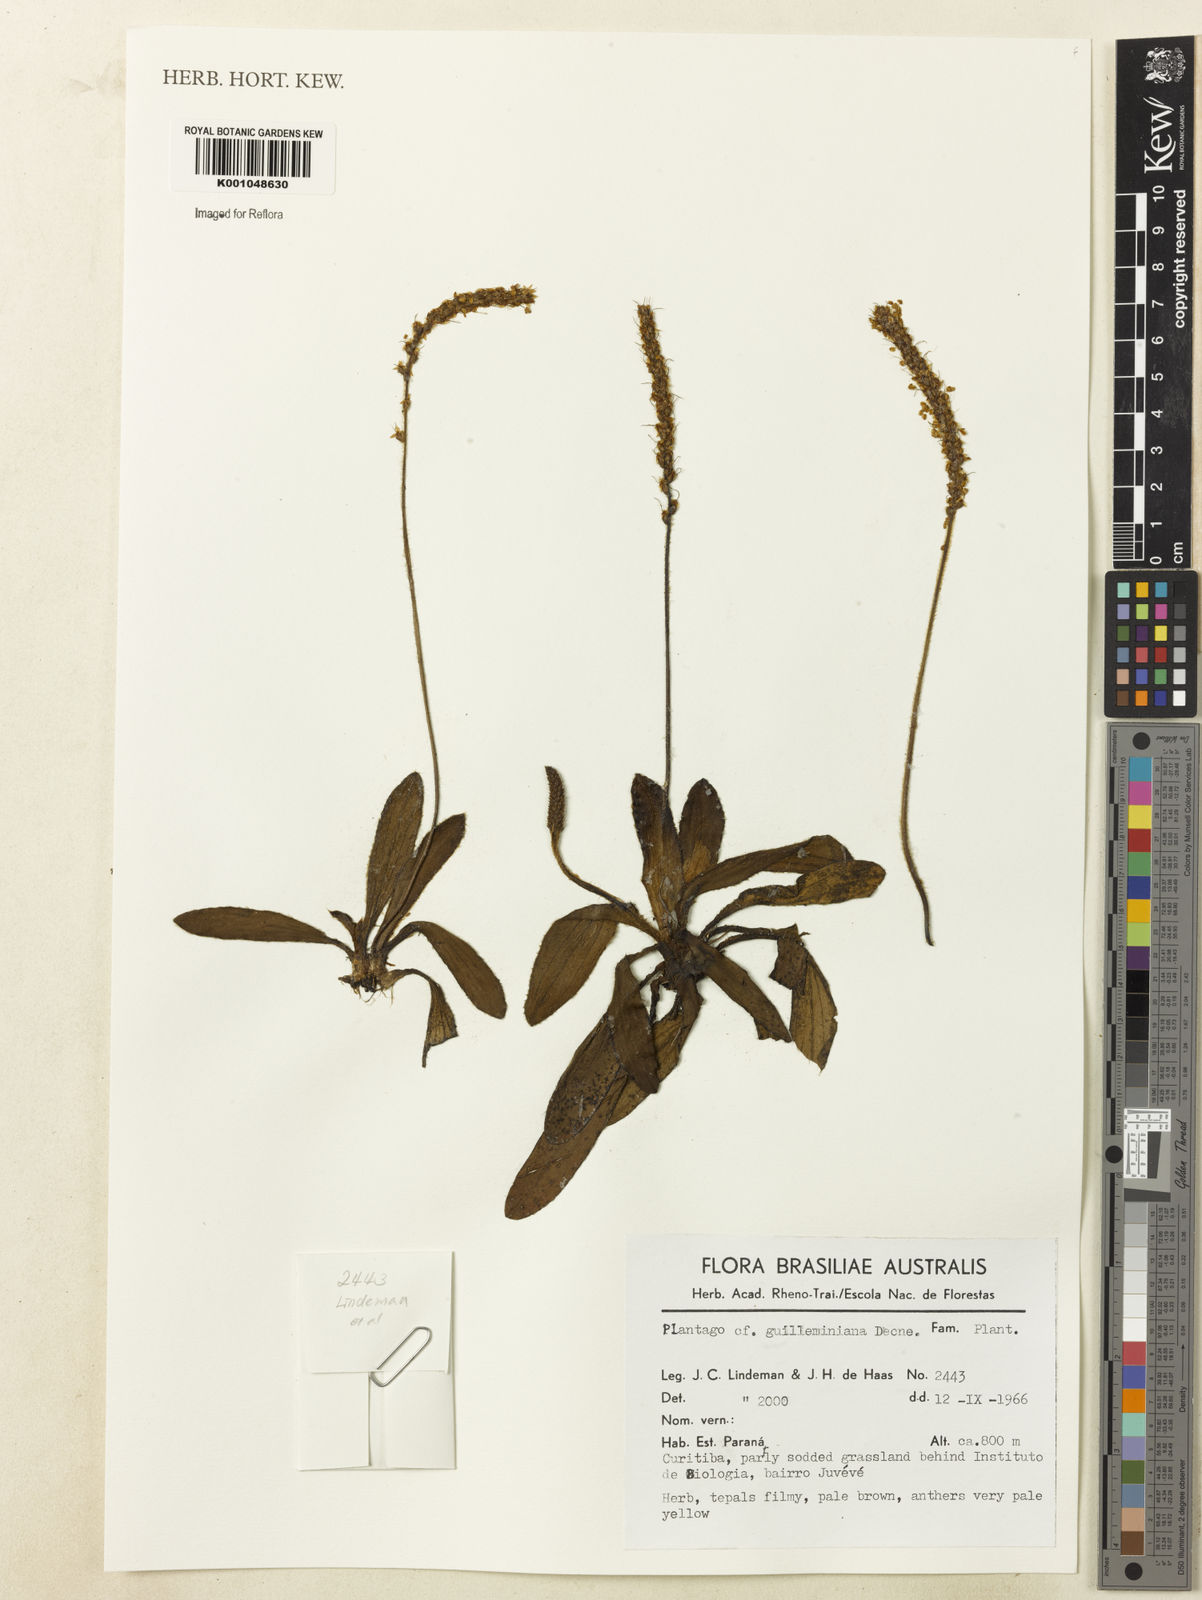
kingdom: Plantae
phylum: Tracheophyta
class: Magnoliopsida
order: Lamiales
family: Plantaginaceae
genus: Plantago
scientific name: Plantago guilleminiana
